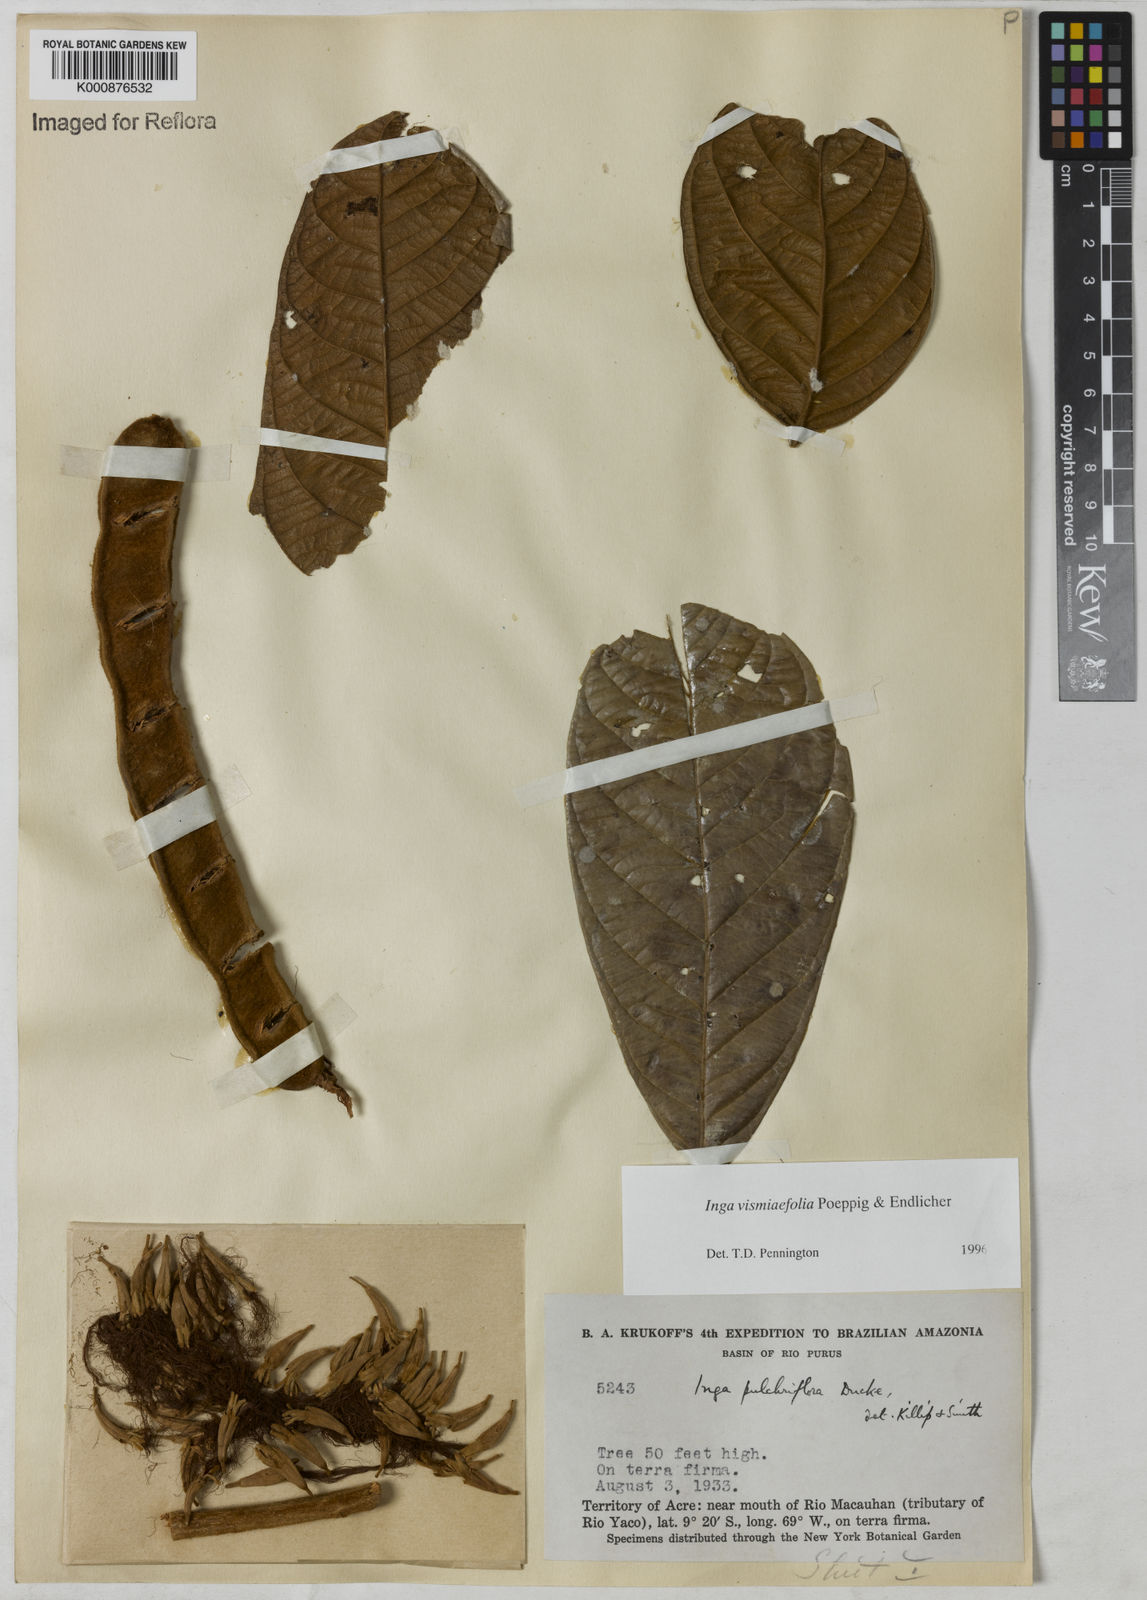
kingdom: Plantae
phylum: Tracheophyta
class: Magnoliopsida
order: Fabales
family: Fabaceae
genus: Inga
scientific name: Inga vismiifolia
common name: Howler monkey inga
